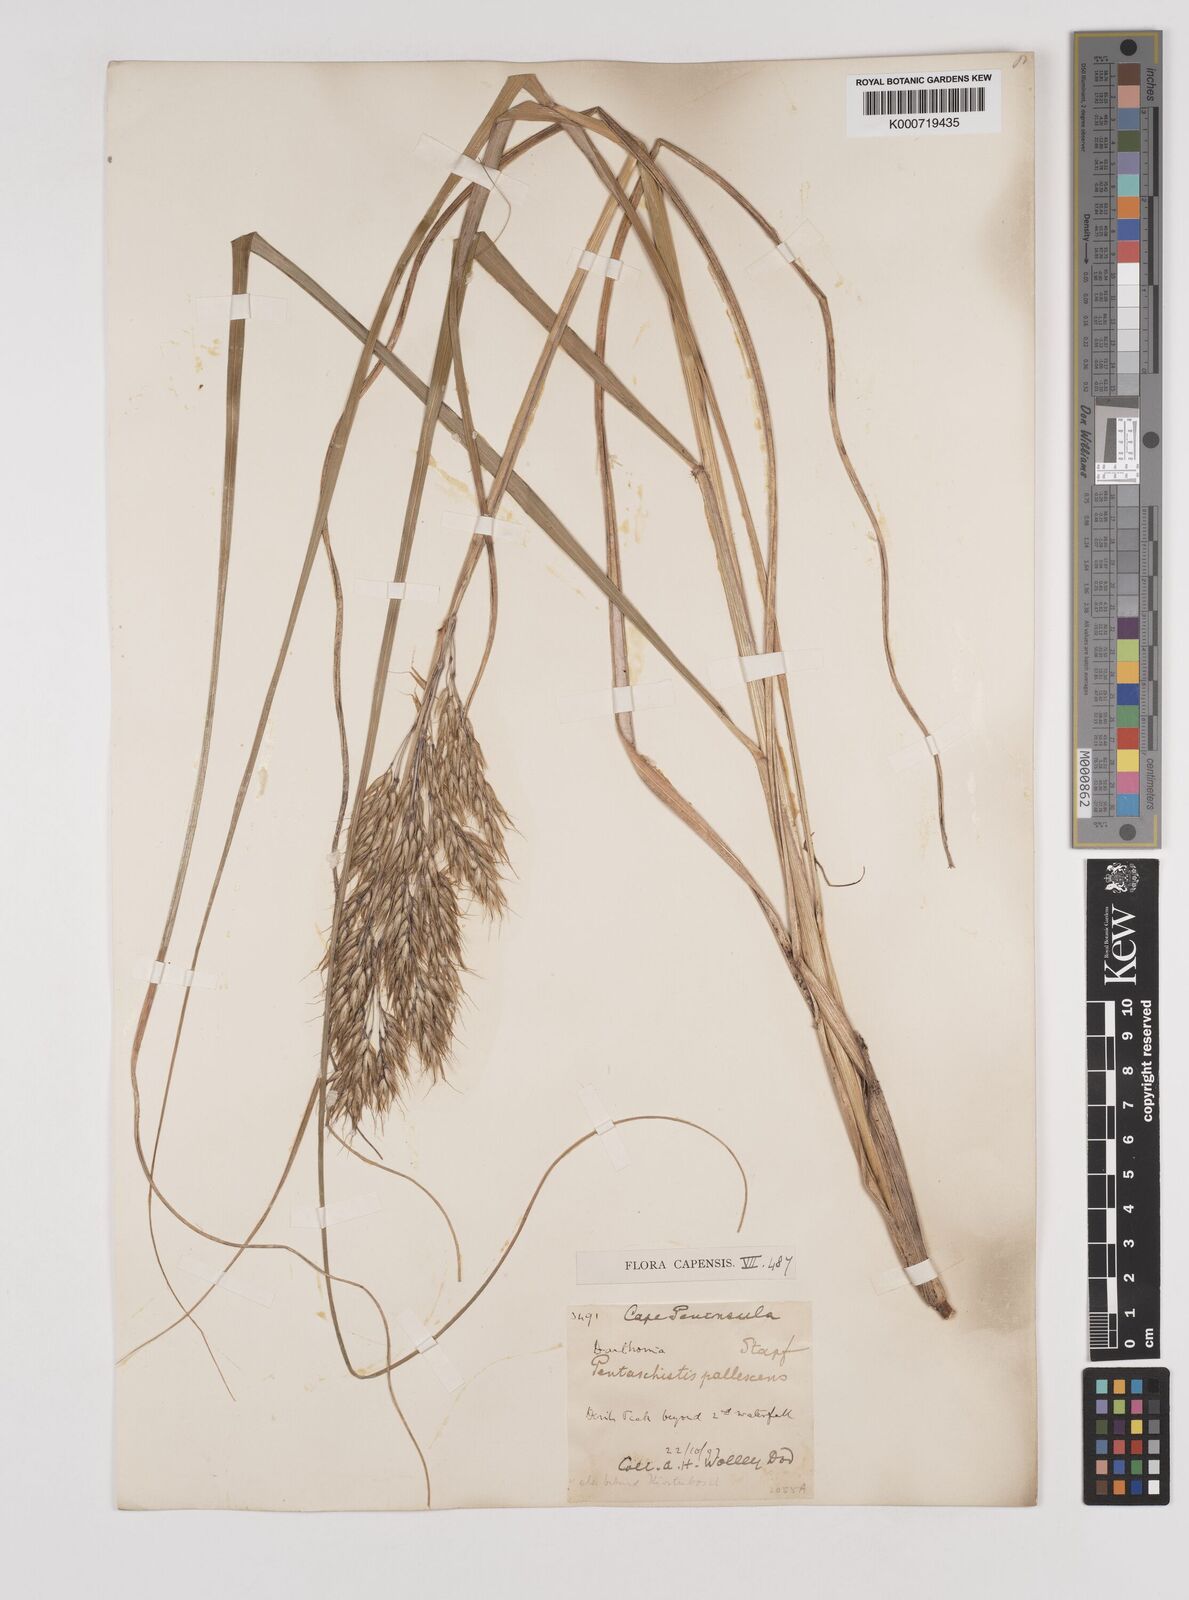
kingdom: Plantae
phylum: Tracheophyta
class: Liliopsida
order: Poales
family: Poaceae
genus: Pentameris
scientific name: Pentameris pallescens
